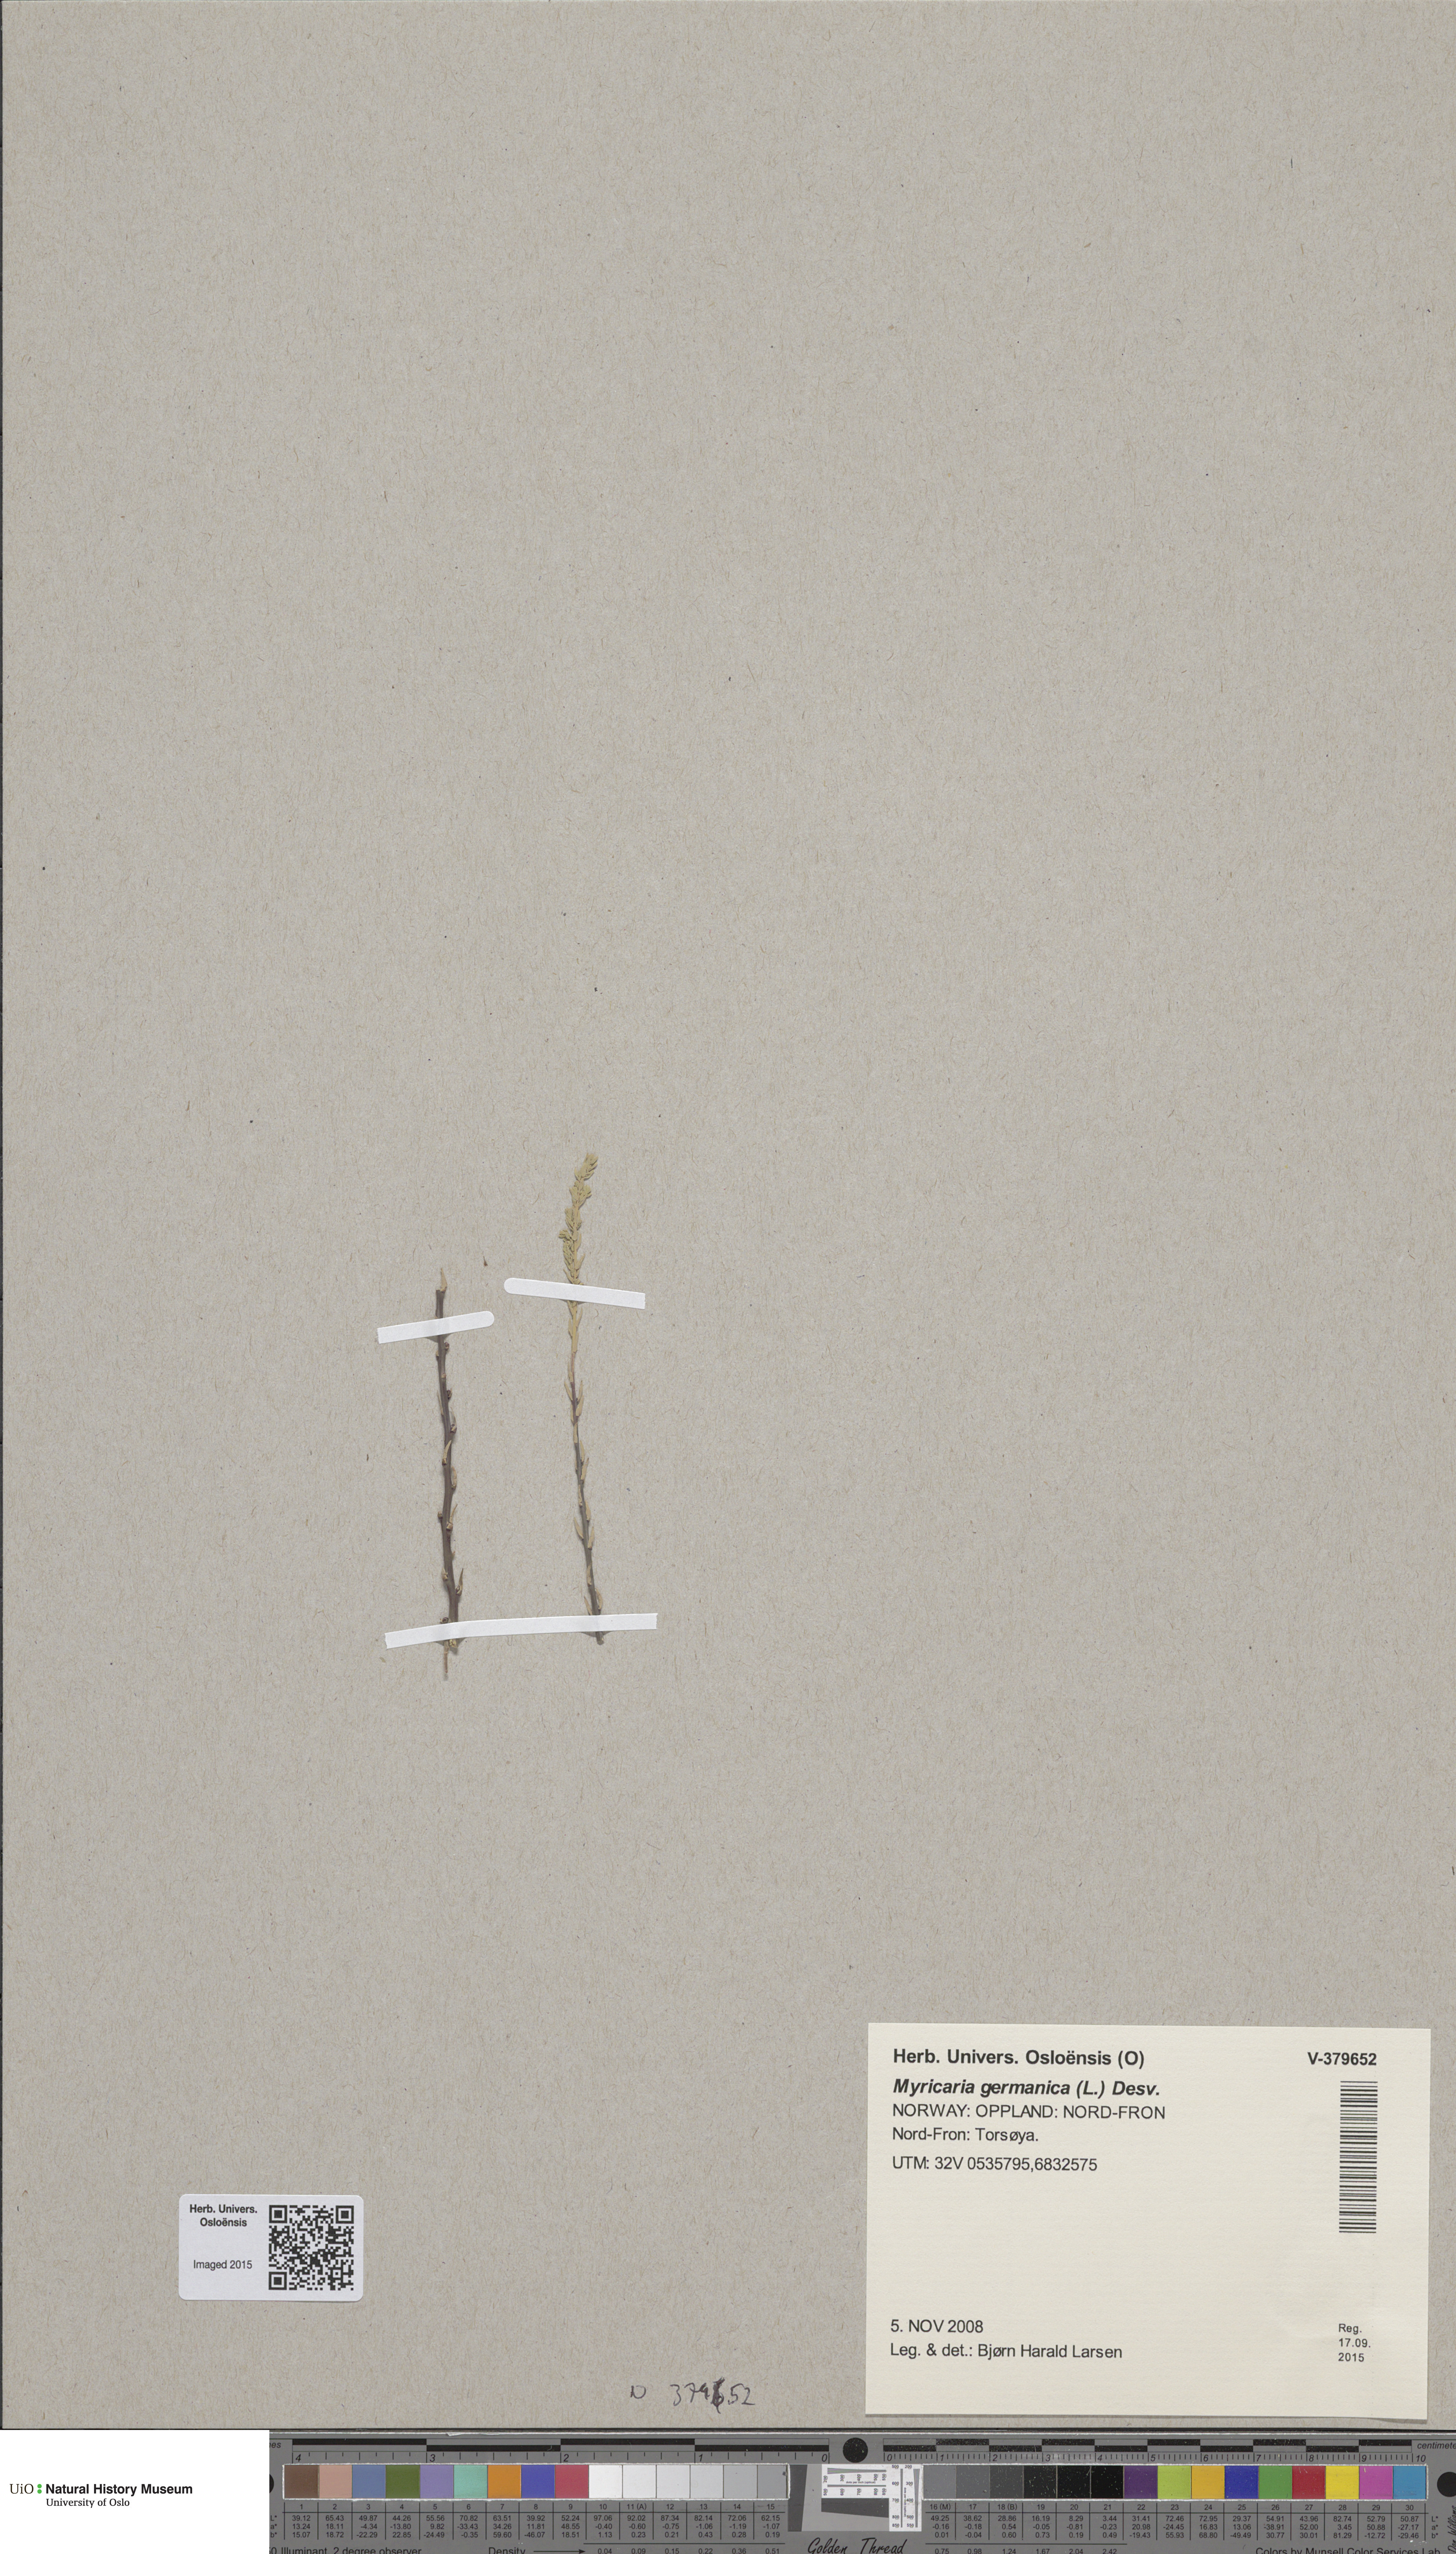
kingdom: Plantae
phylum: Tracheophyta
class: Magnoliopsida
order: Caryophyllales
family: Tamaricaceae
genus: Myricaria
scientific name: Myricaria germanica
